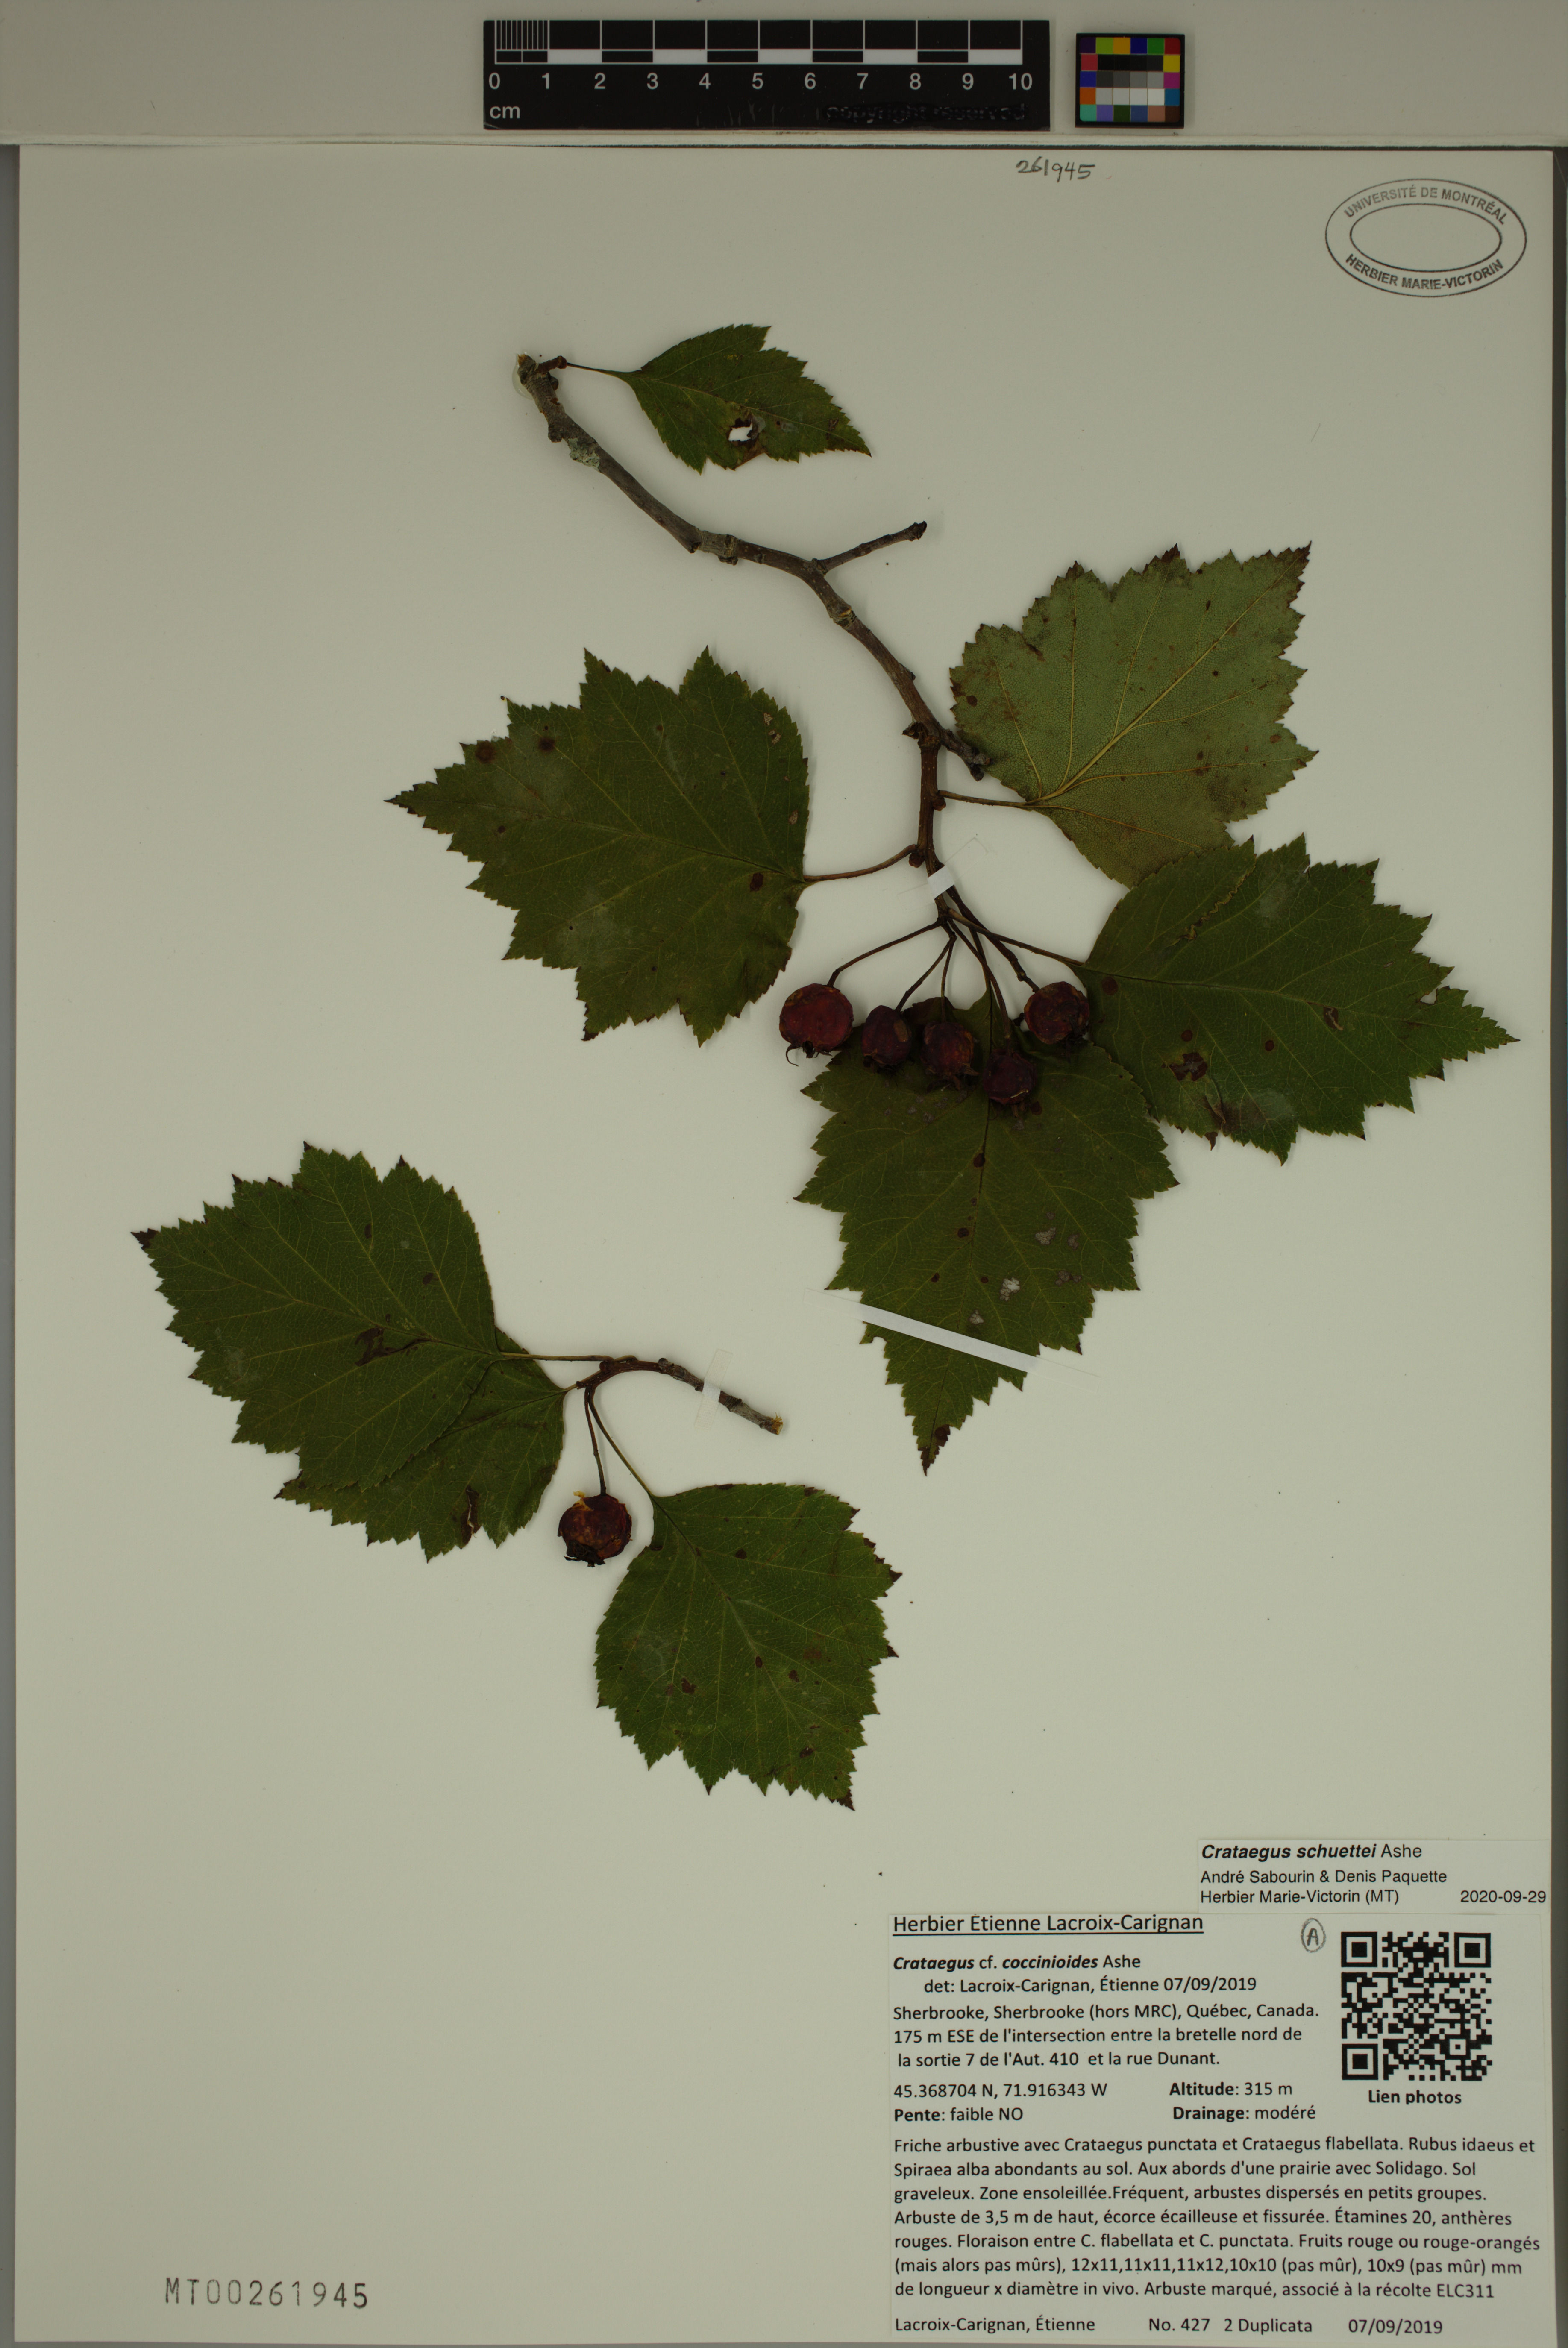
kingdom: Plantae
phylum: Tracheophyta
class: Magnoliopsida
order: Rosales
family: Rosaceae
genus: Crataegus
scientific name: Crataegus schuettei
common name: Schuette's hawthorn
